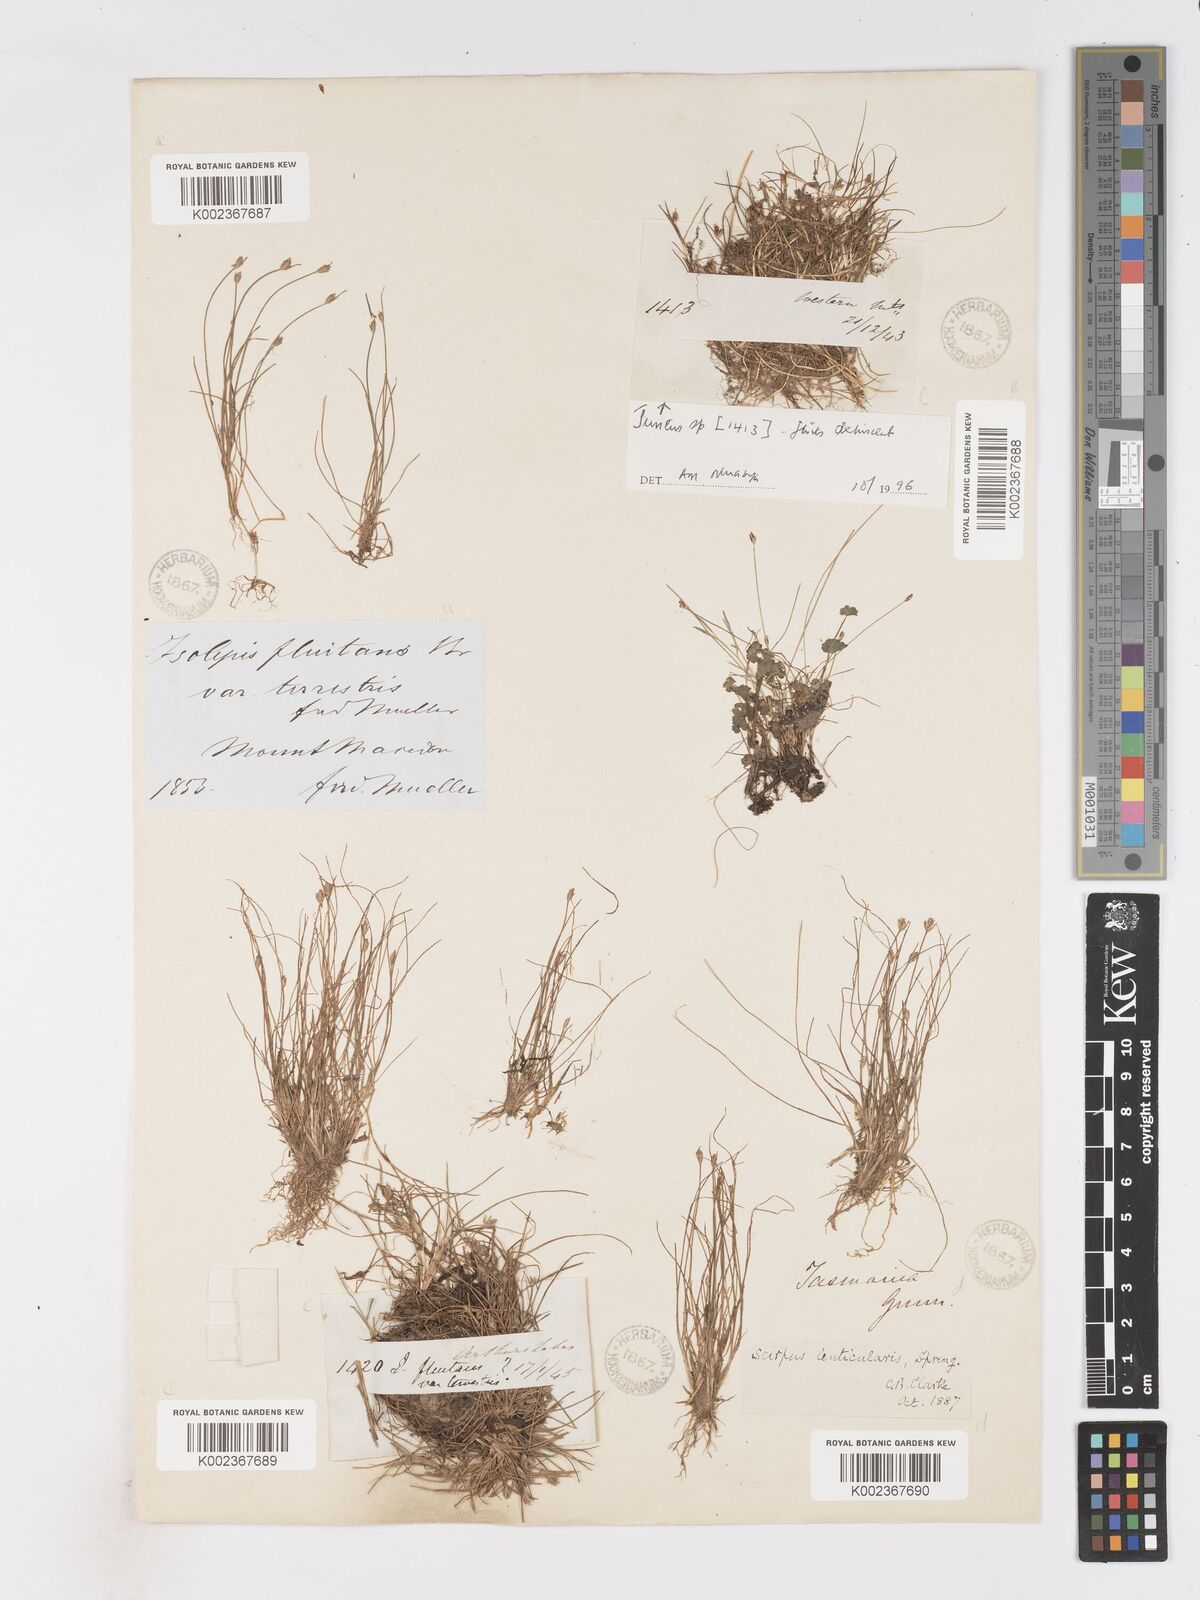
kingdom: Plantae
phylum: Tracheophyta
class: Liliopsida
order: Poales
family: Cyperaceae
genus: Isolepis
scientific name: Isolepis fluitans
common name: Floating club-rush
